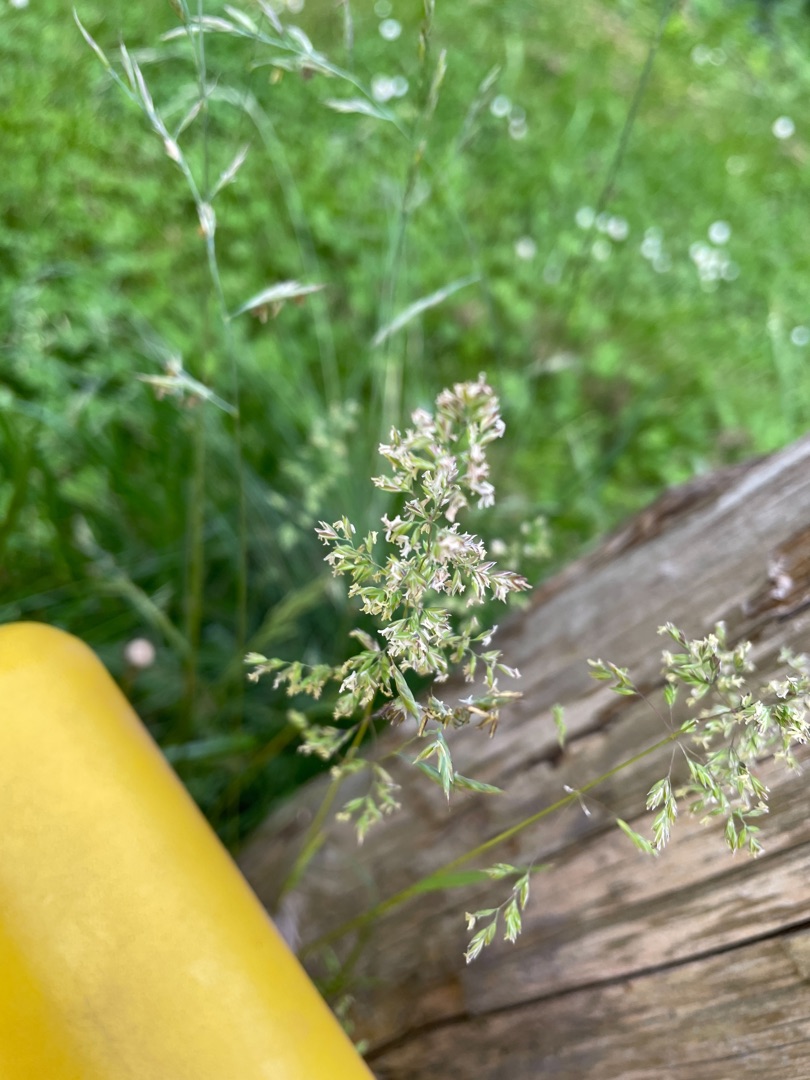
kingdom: Plantae
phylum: Tracheophyta
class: Liliopsida
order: Poales
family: Poaceae
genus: Poa
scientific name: Poa trivialis
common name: Almindelig rapgræs
